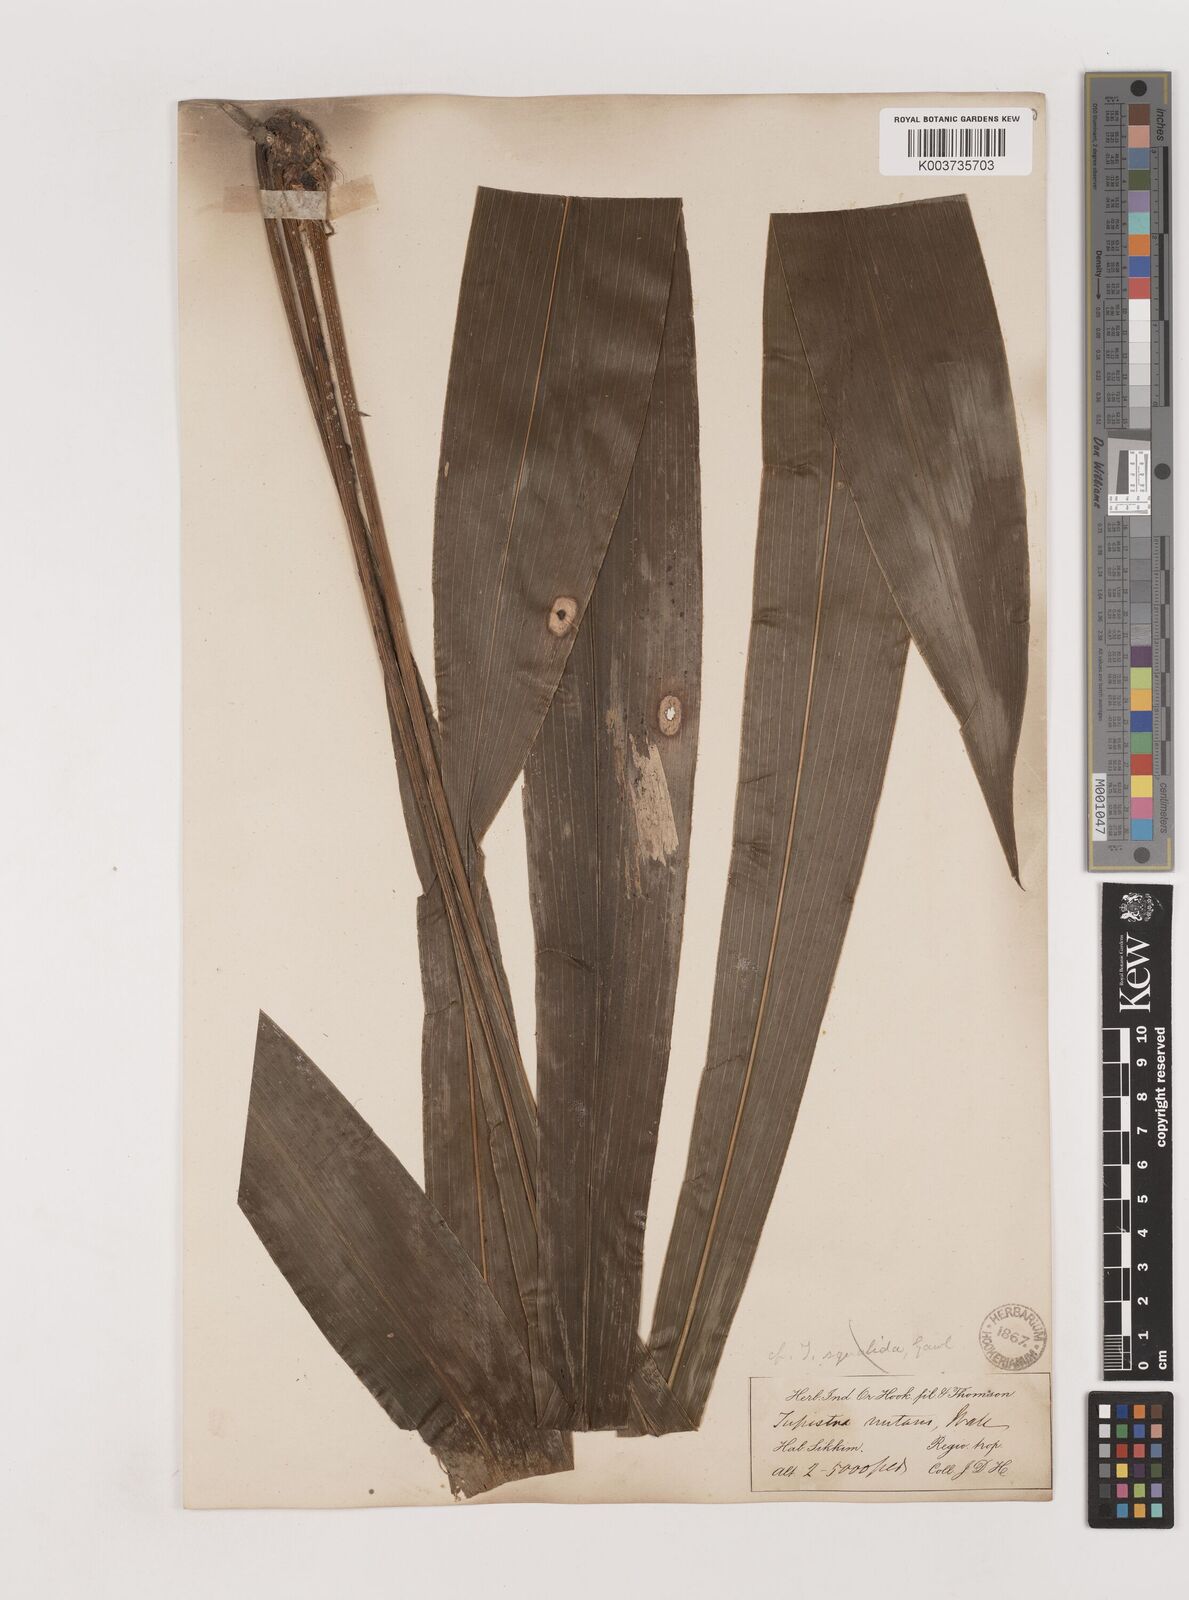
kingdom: Plantae
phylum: Tracheophyta
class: Liliopsida
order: Asparagales
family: Asparagaceae
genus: Tupistra
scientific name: Tupistra squalida
